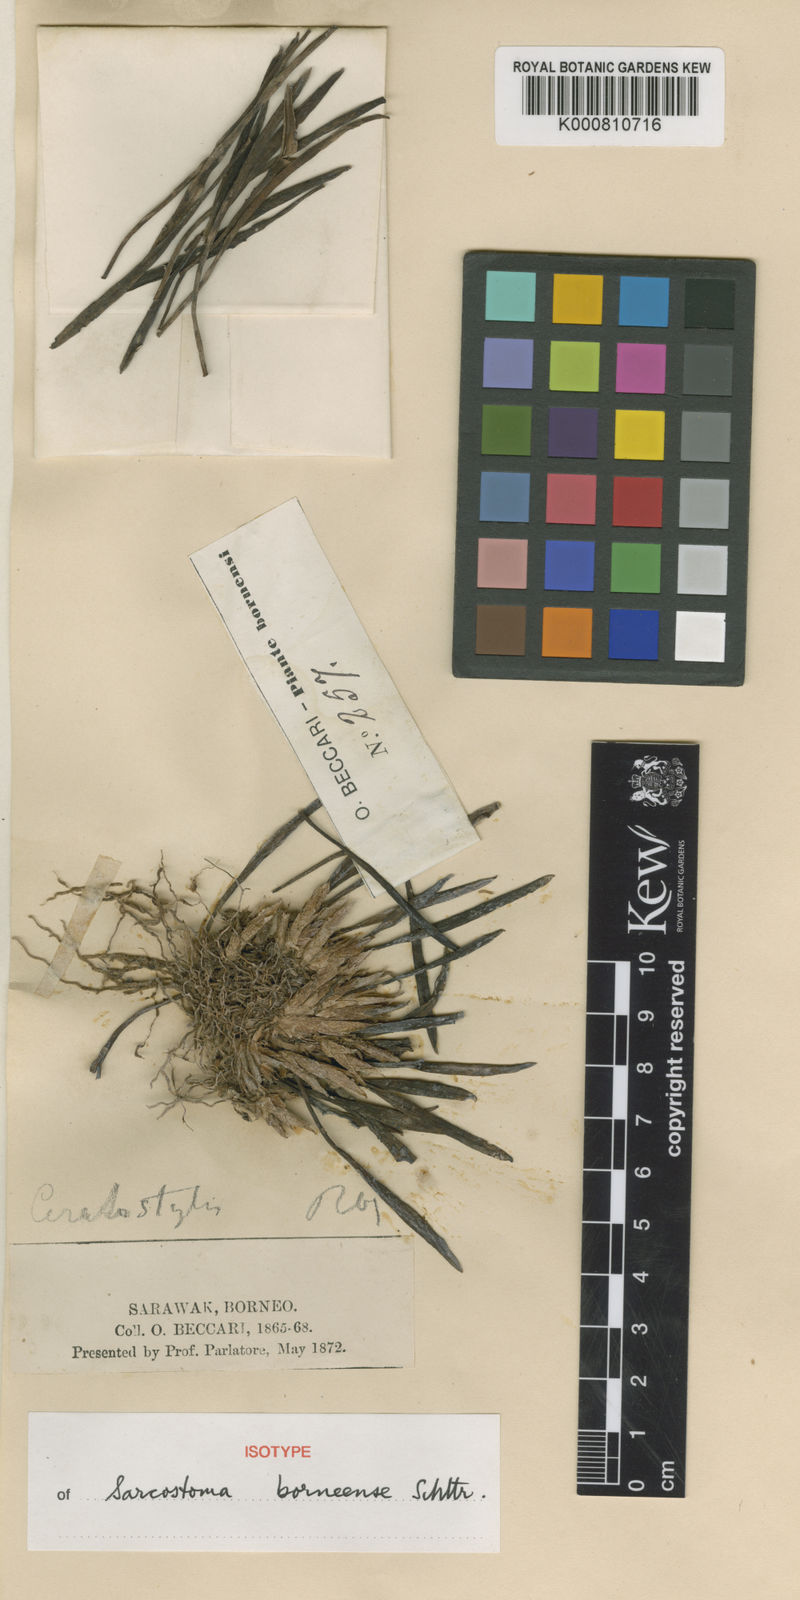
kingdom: Plantae
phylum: Tracheophyta
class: Liliopsida
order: Asparagales
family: Orchidaceae
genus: Ceratostylis
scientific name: Ceratostylis sarawakensis
